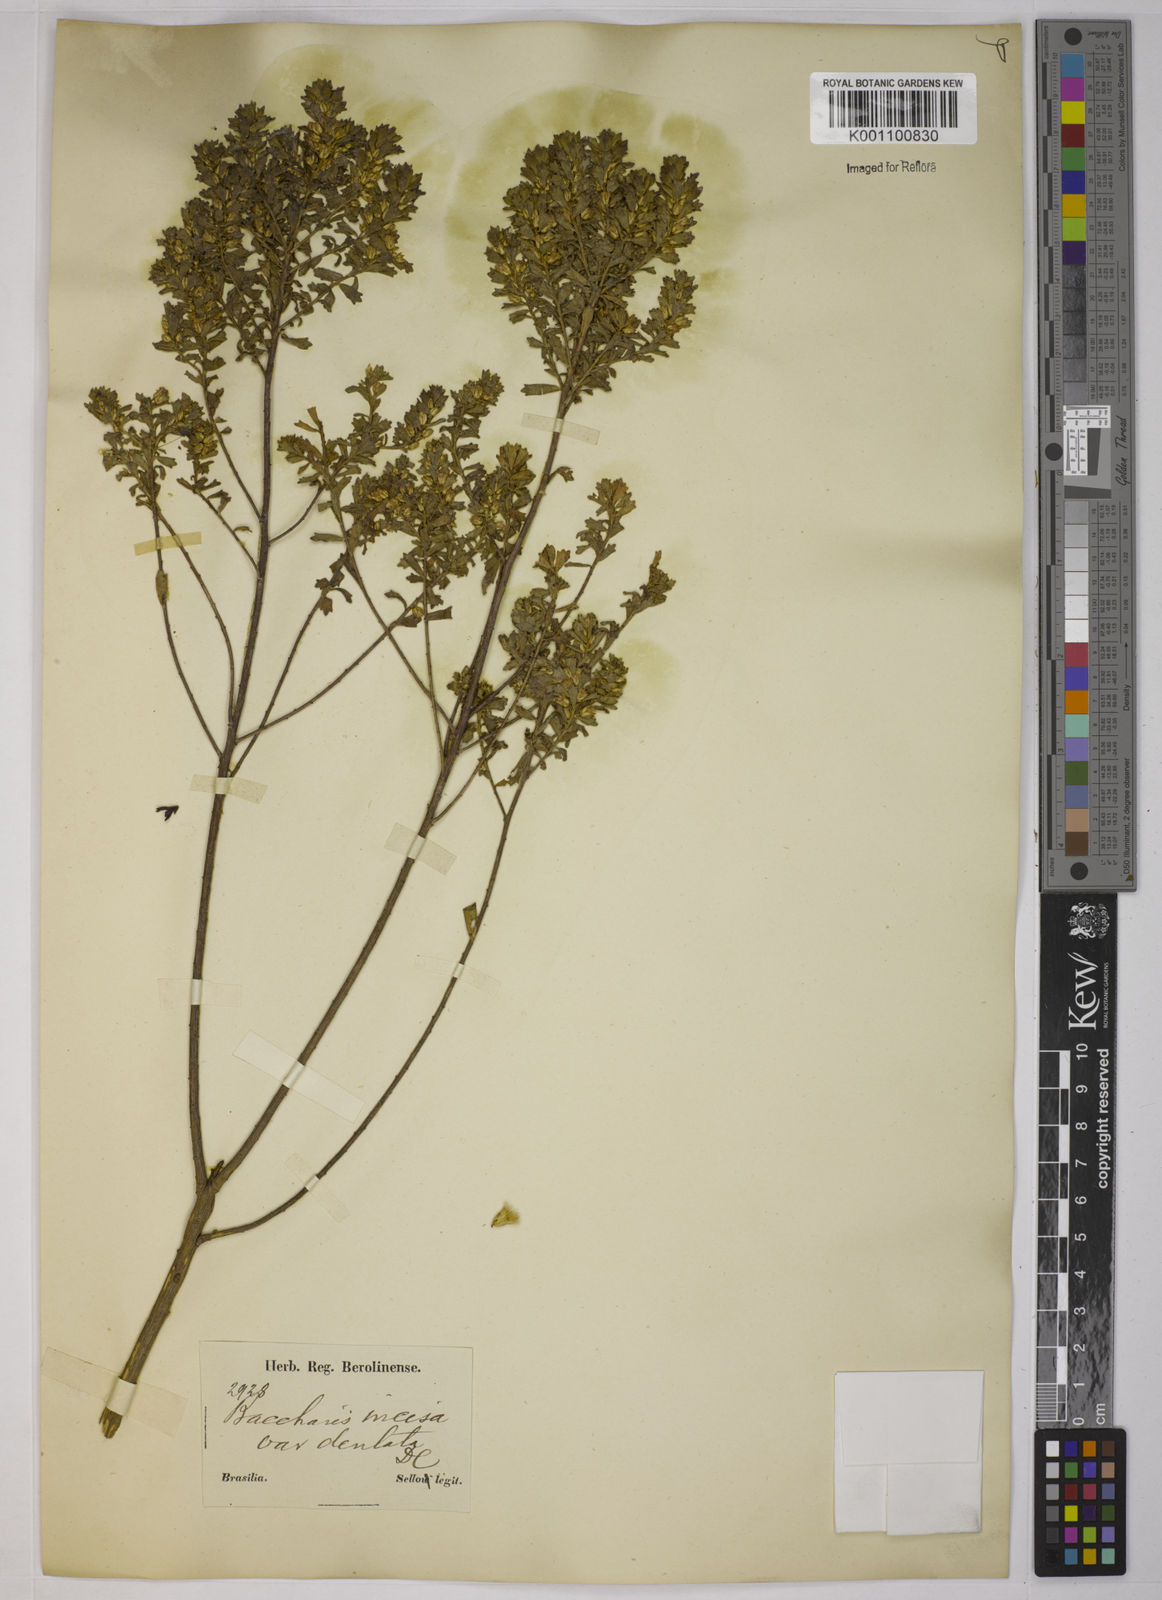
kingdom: Plantae
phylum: Tracheophyta
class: Magnoliopsida
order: Asterales
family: Asteraceae
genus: Baccharis
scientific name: Baccharis gaucha
